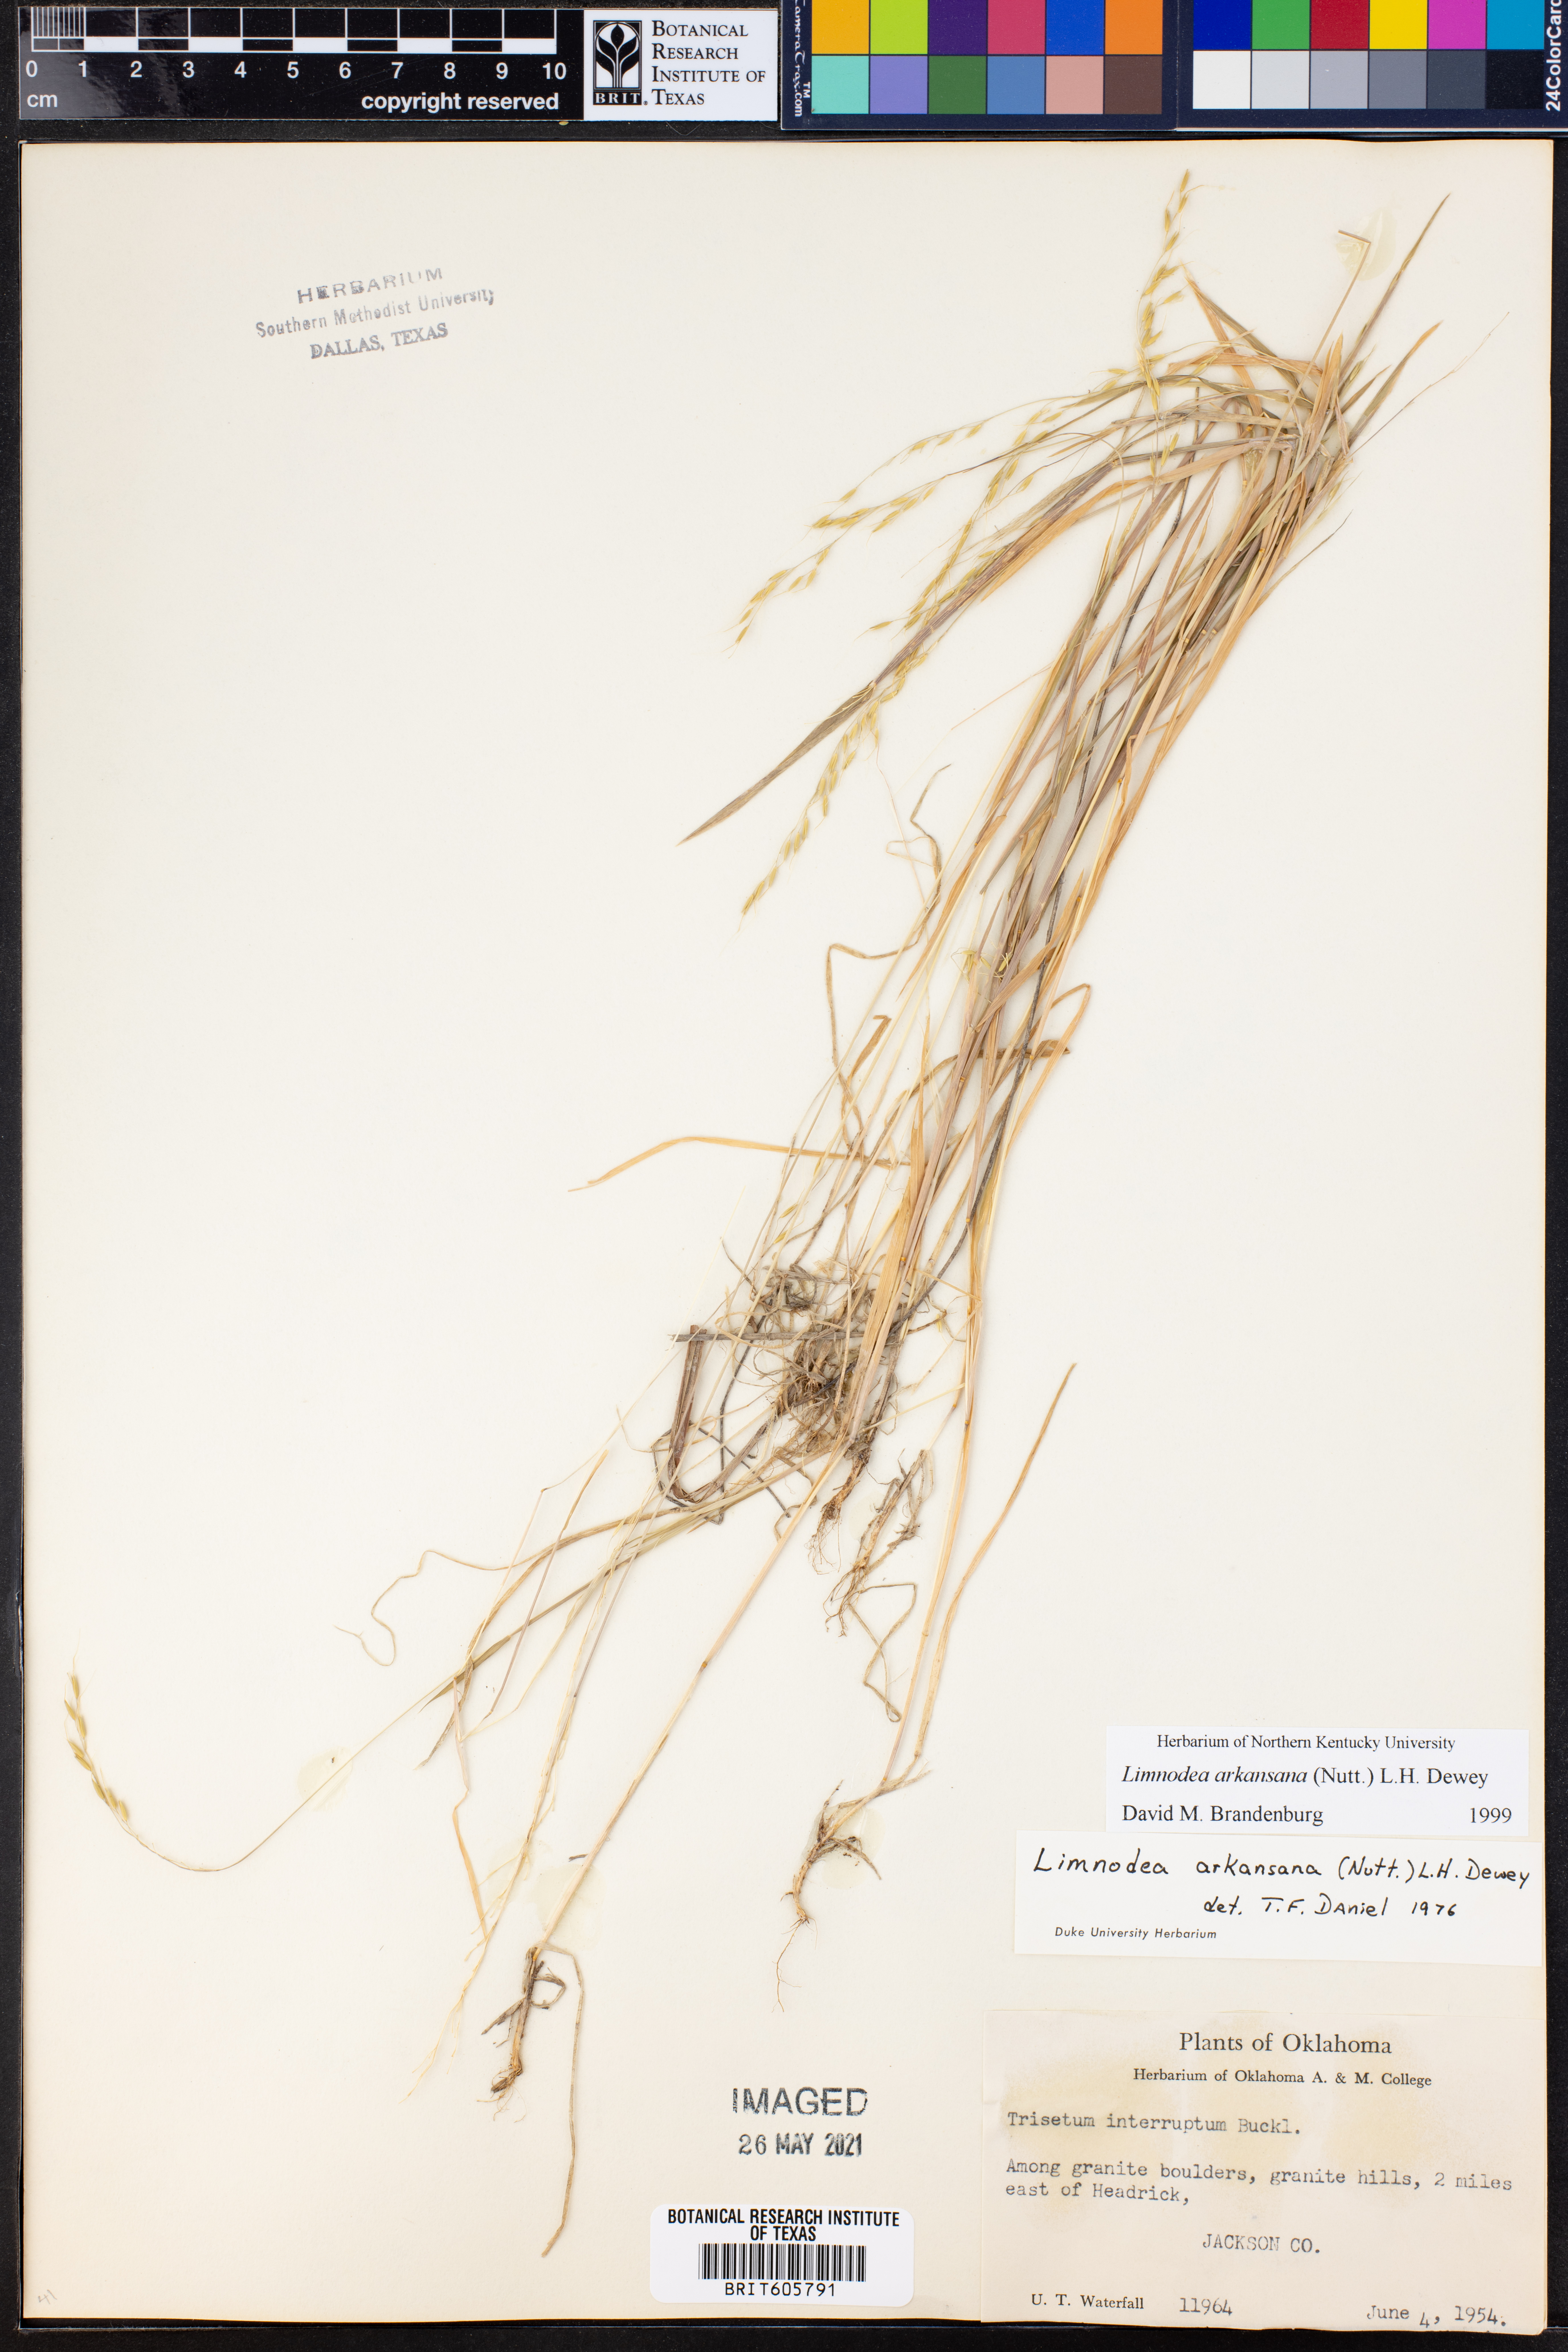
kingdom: Plantae
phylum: Tracheophyta
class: Liliopsida
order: Poales
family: Poaceae
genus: Limnodea
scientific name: Limnodea arkansana
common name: Ozark-grass
